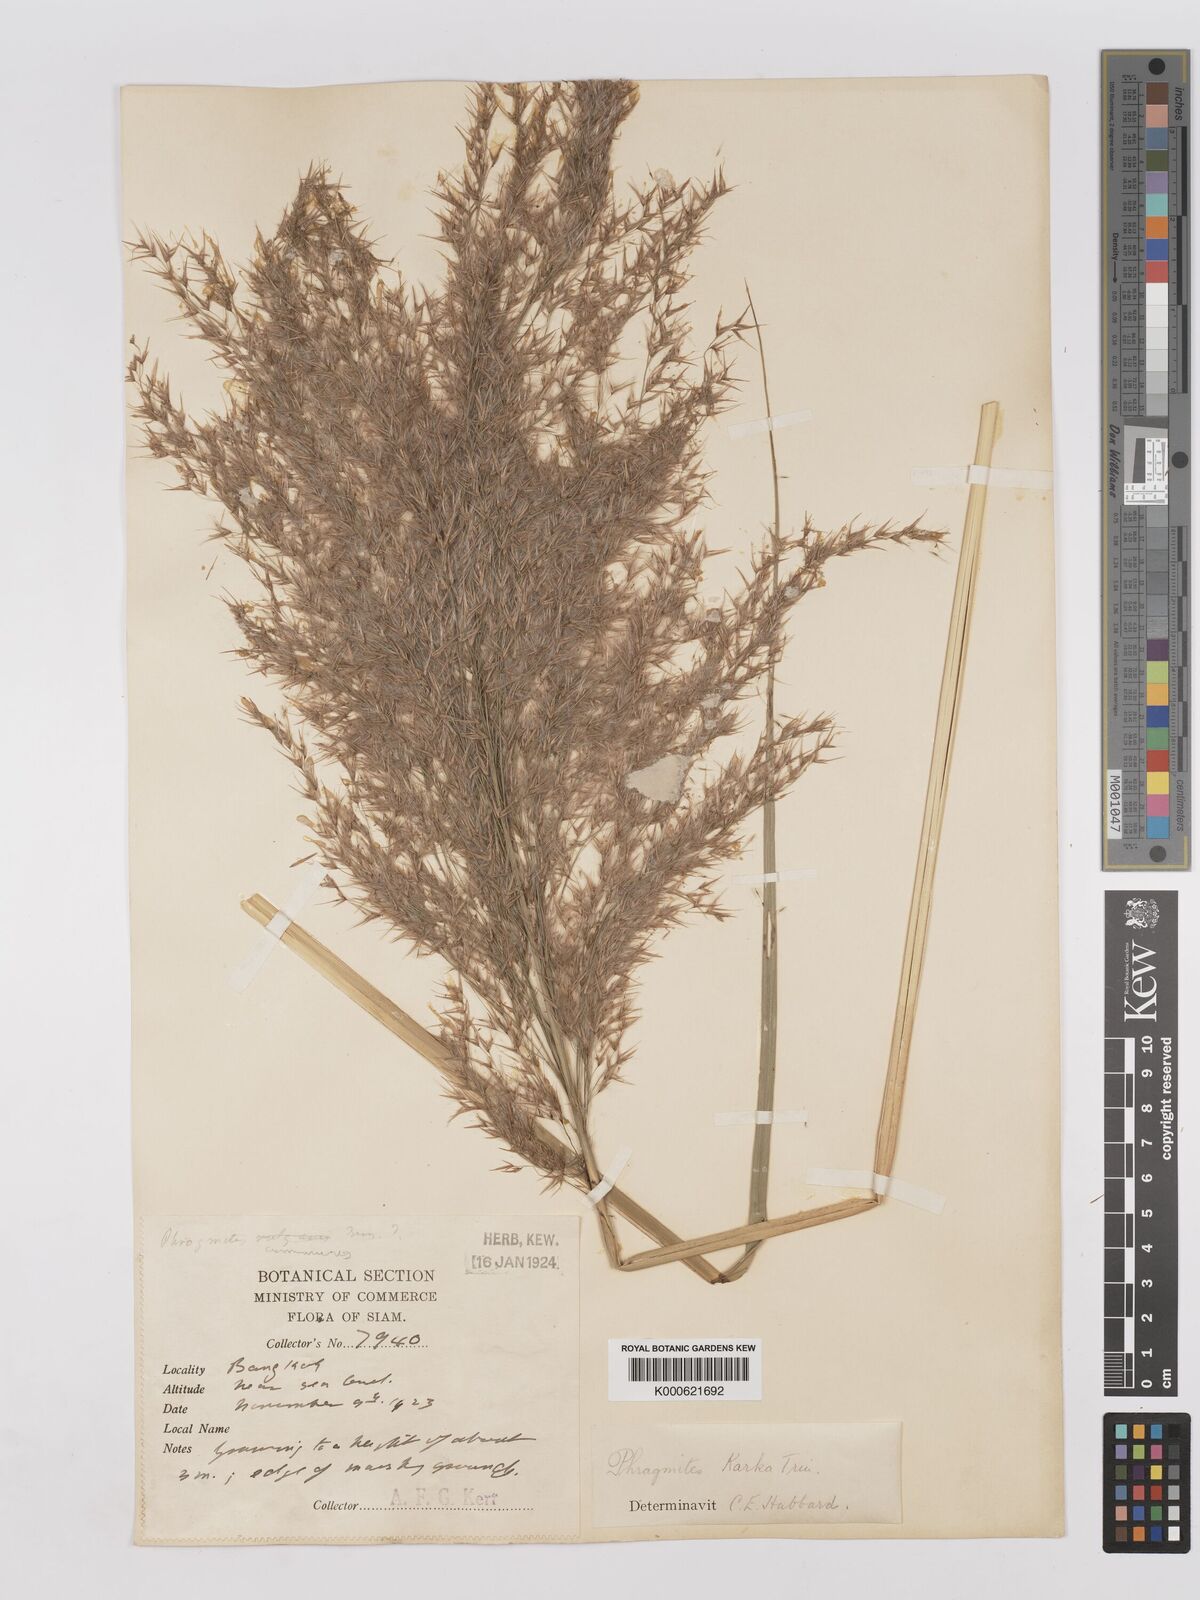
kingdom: Plantae
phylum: Tracheophyta
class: Liliopsida
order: Poales
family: Poaceae
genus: Phragmites
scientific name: Phragmites karka
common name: Tropical reed
